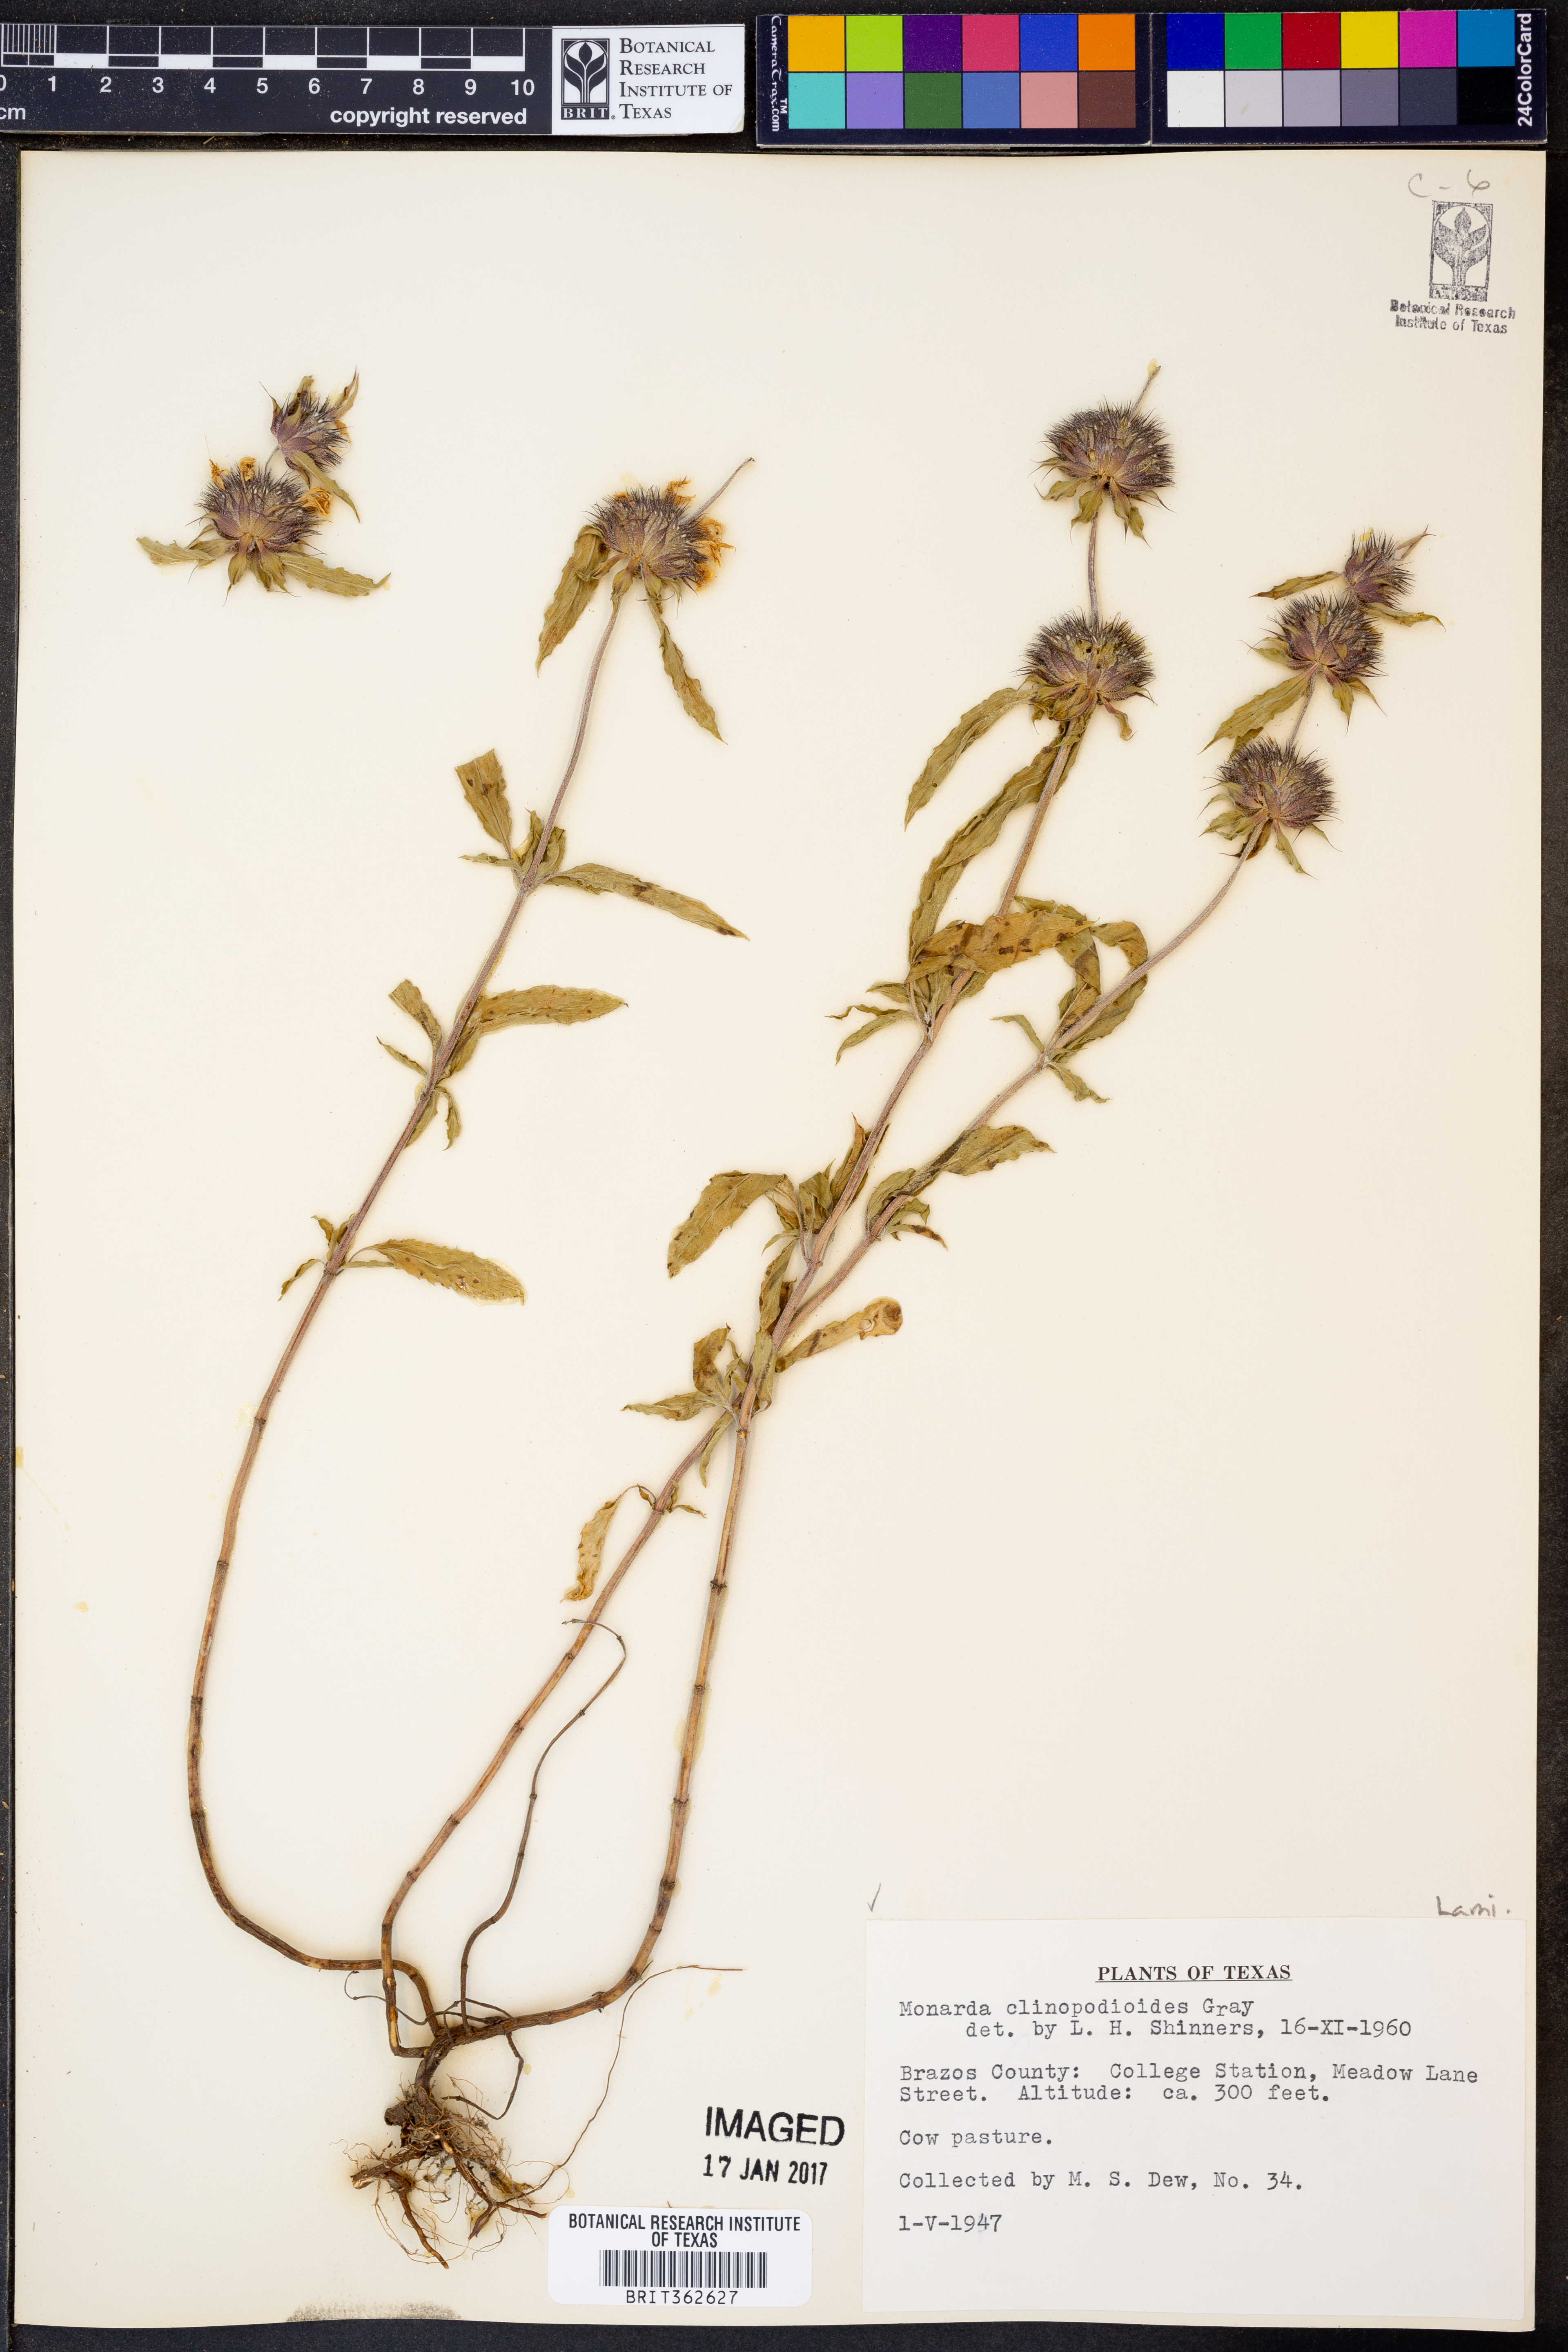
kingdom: Plantae
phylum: Tracheophyta
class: Magnoliopsida
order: Lamiales
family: Lamiaceae
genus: Monarda
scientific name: Monarda clinopodioides
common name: Basil beebalm
